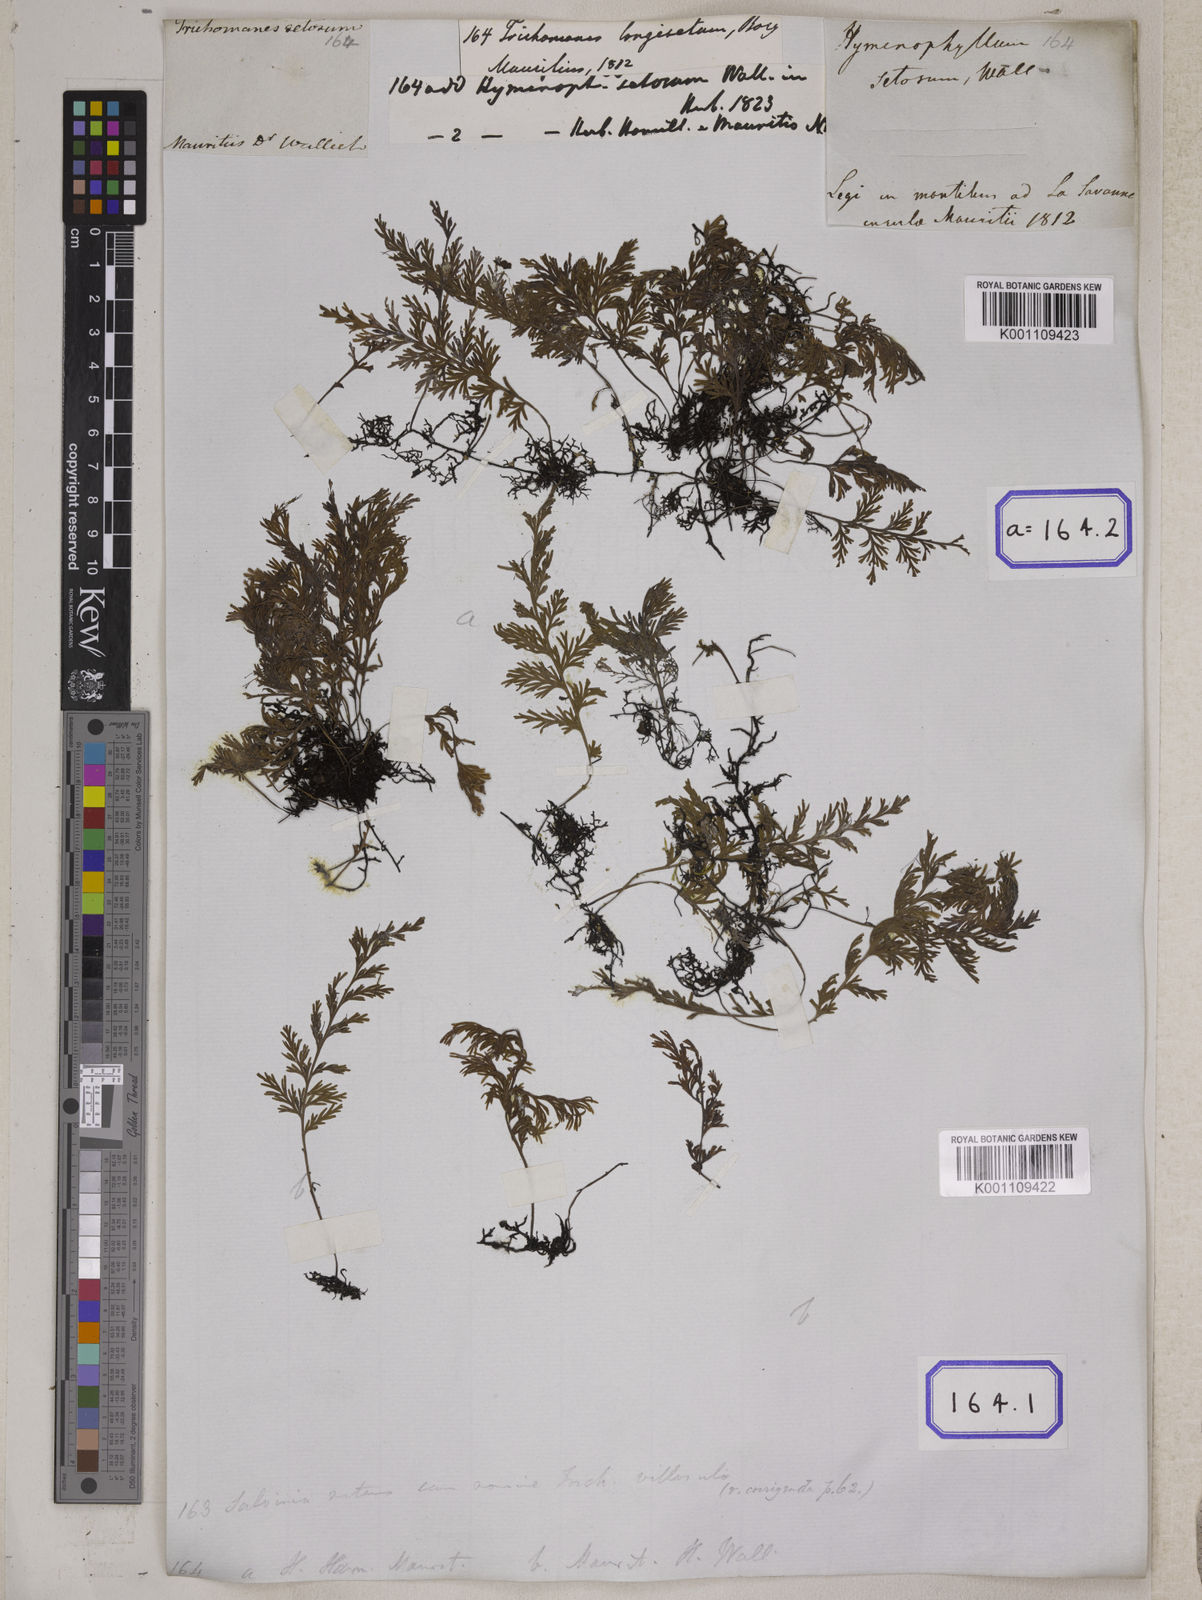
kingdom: Plantae
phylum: Tracheophyta
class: Polypodiopsida
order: Hymenophyllales
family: Hymenophyllaceae
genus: Trichomanes
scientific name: Trichomanes
